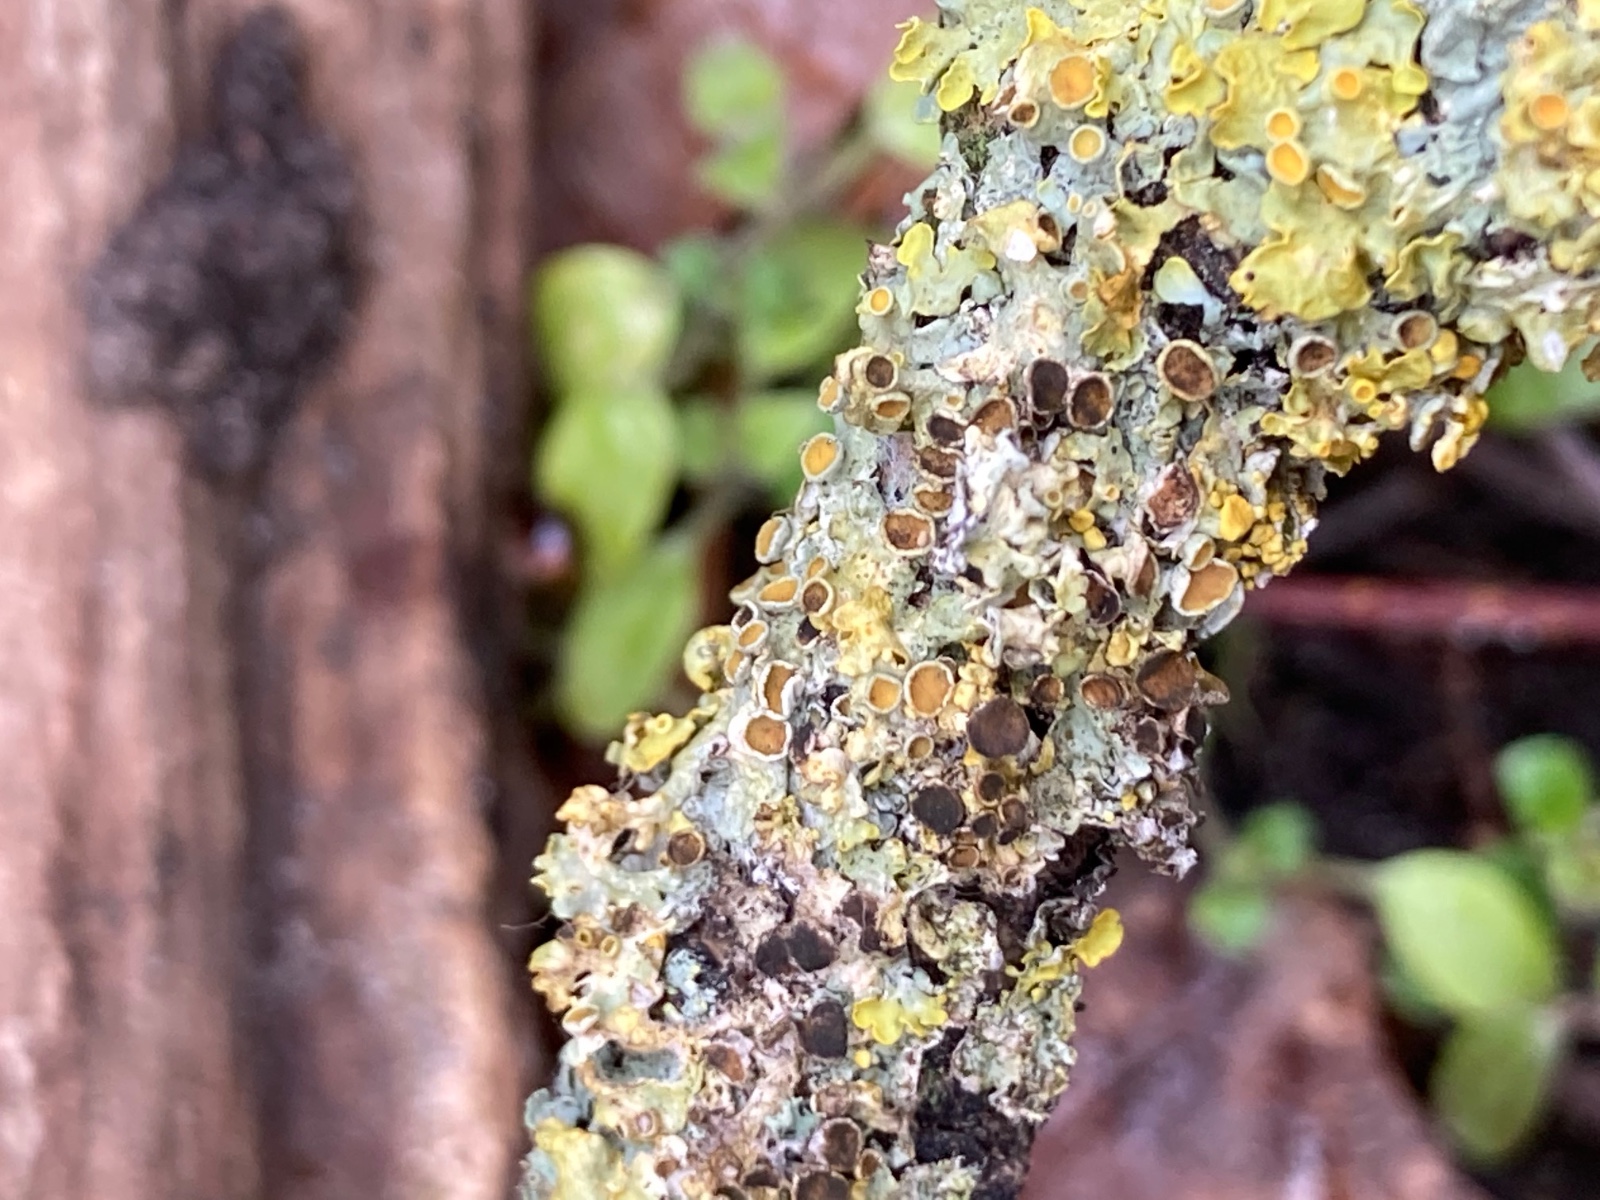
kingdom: Fungi
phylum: Ascomycota
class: Dothideomycetes
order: Mycosphaerellales
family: Teratosphaeriaceae
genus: Xanthoriicola
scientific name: Xanthoriicola physciae
